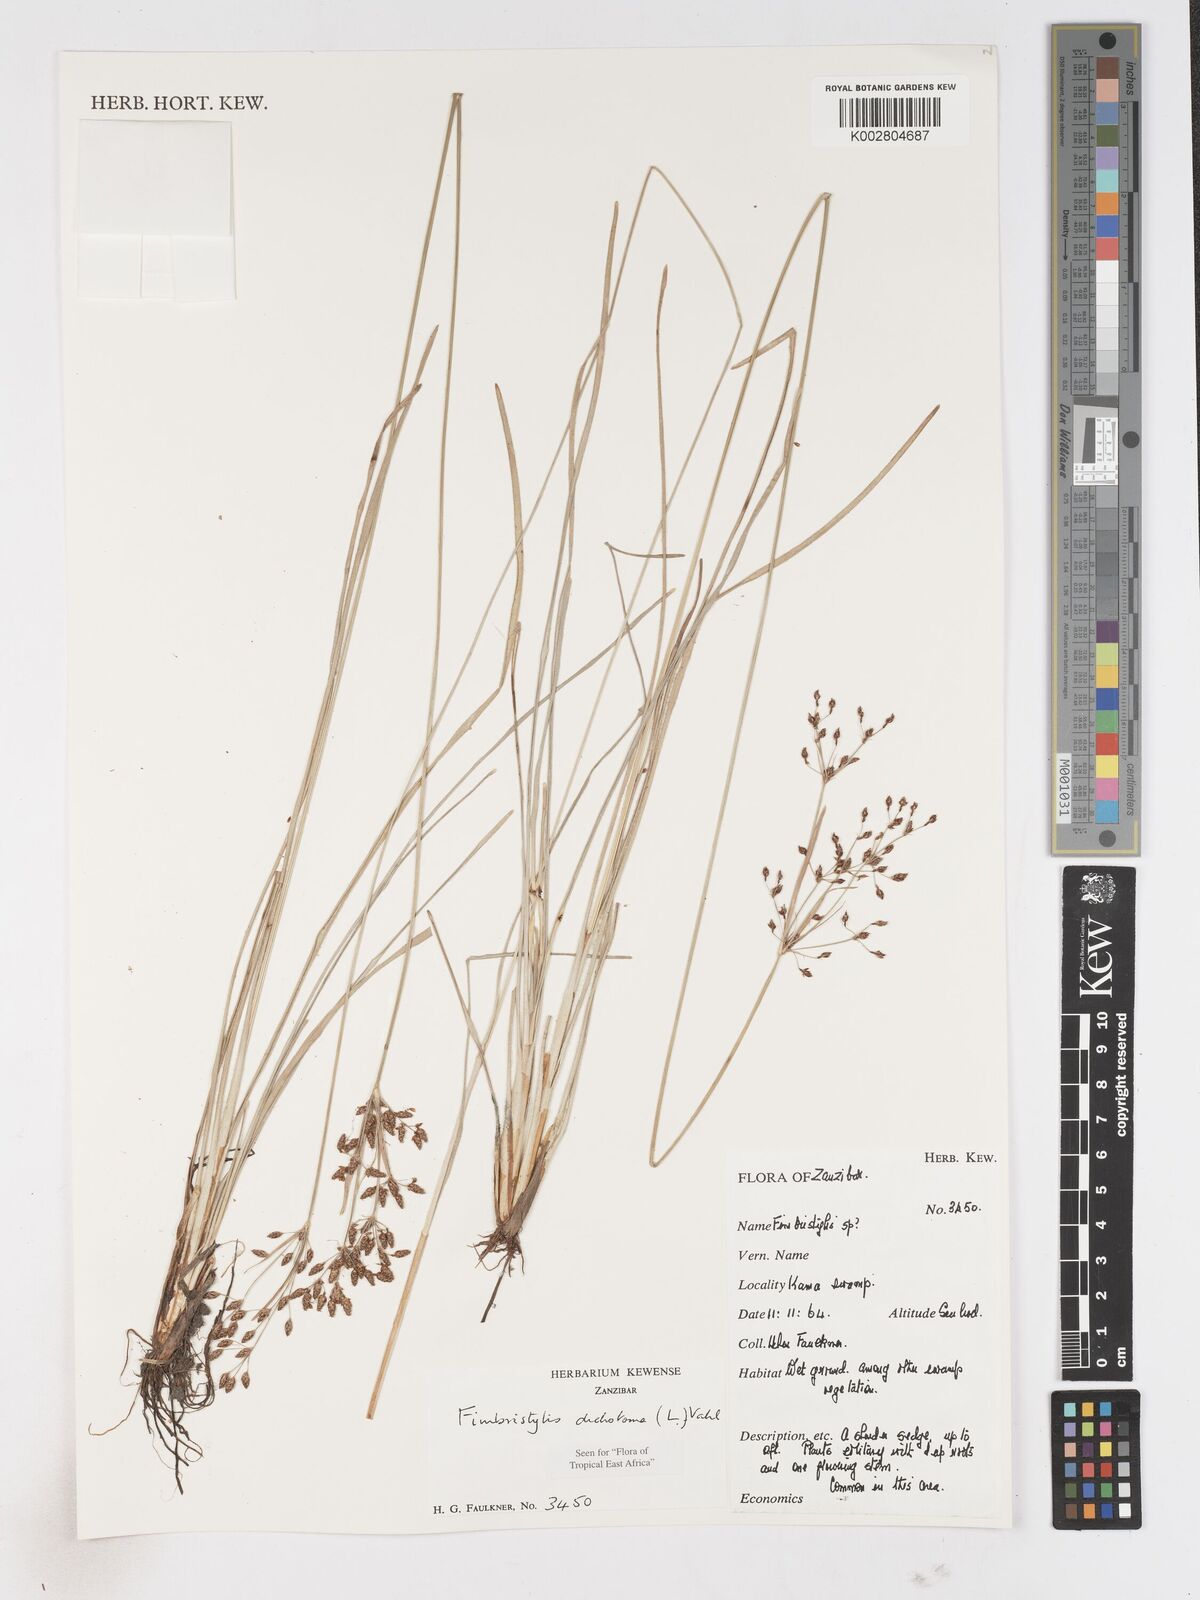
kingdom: Plantae
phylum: Tracheophyta
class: Liliopsida
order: Poales
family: Cyperaceae
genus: Fimbristylis
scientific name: Fimbristylis dichotoma
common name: Forked fimbry
